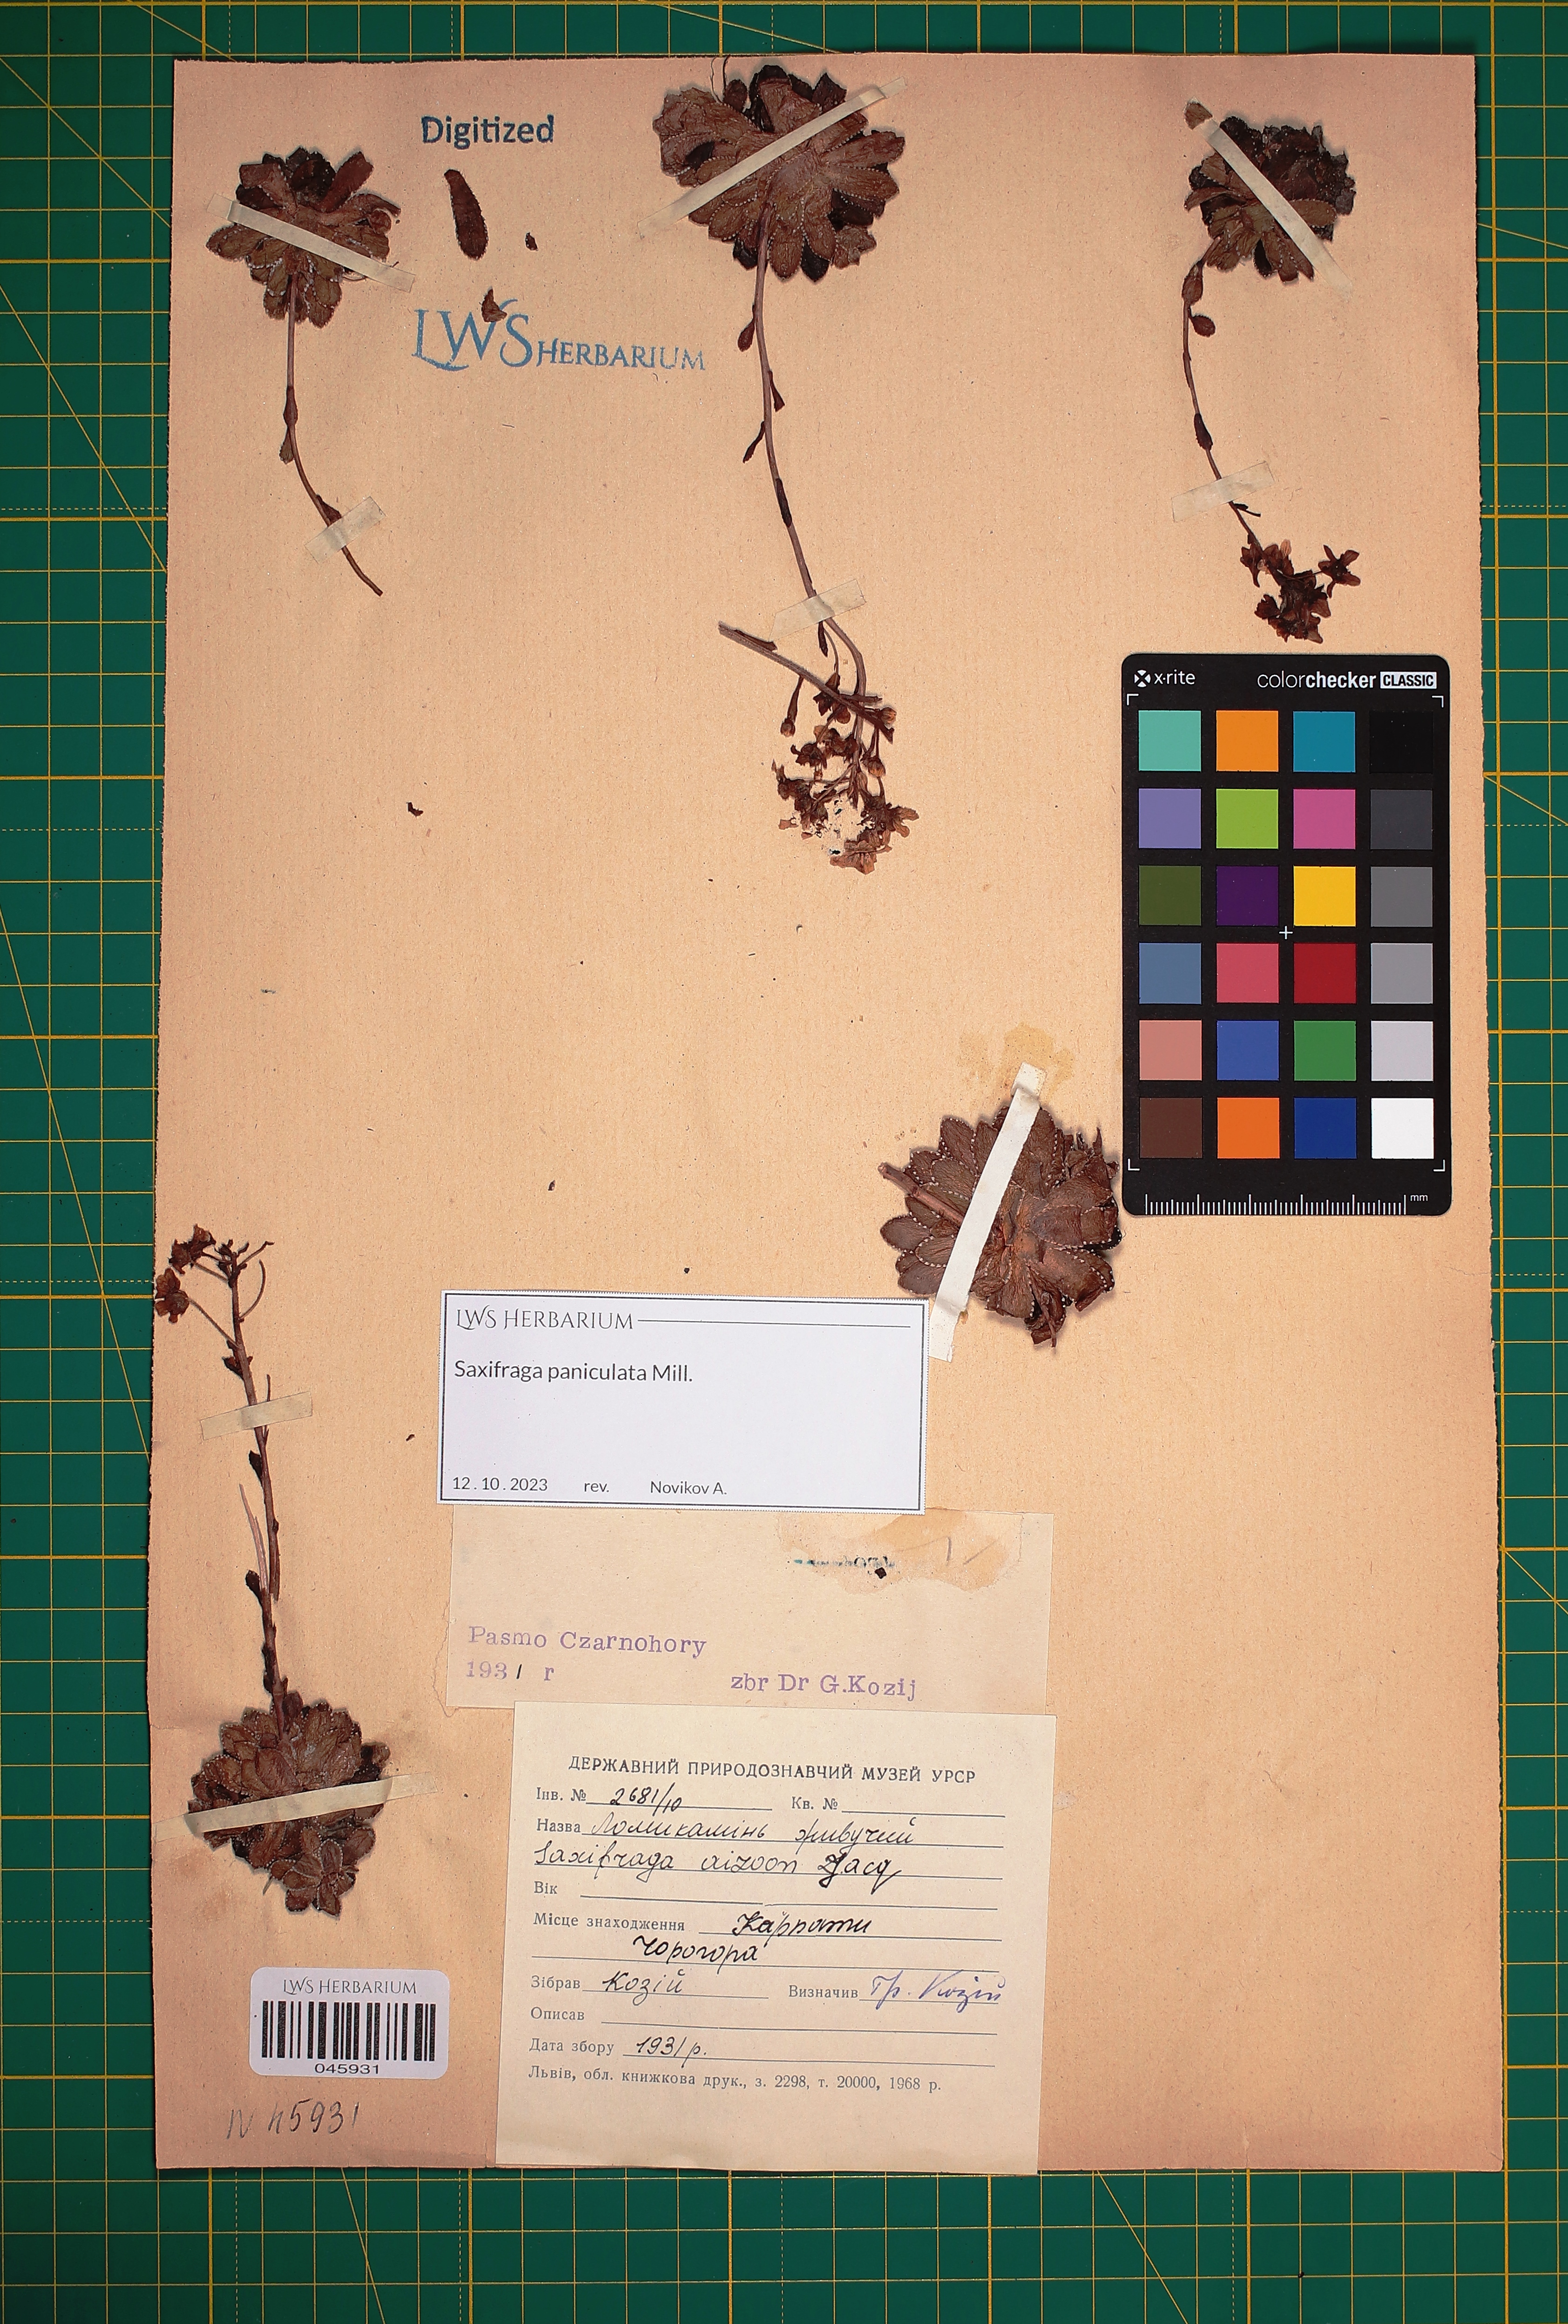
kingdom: Plantae
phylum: Tracheophyta
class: Magnoliopsida
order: Saxifragales
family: Saxifragaceae
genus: Saxifraga
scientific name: Saxifraga paniculata
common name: Livelong saxifrage
